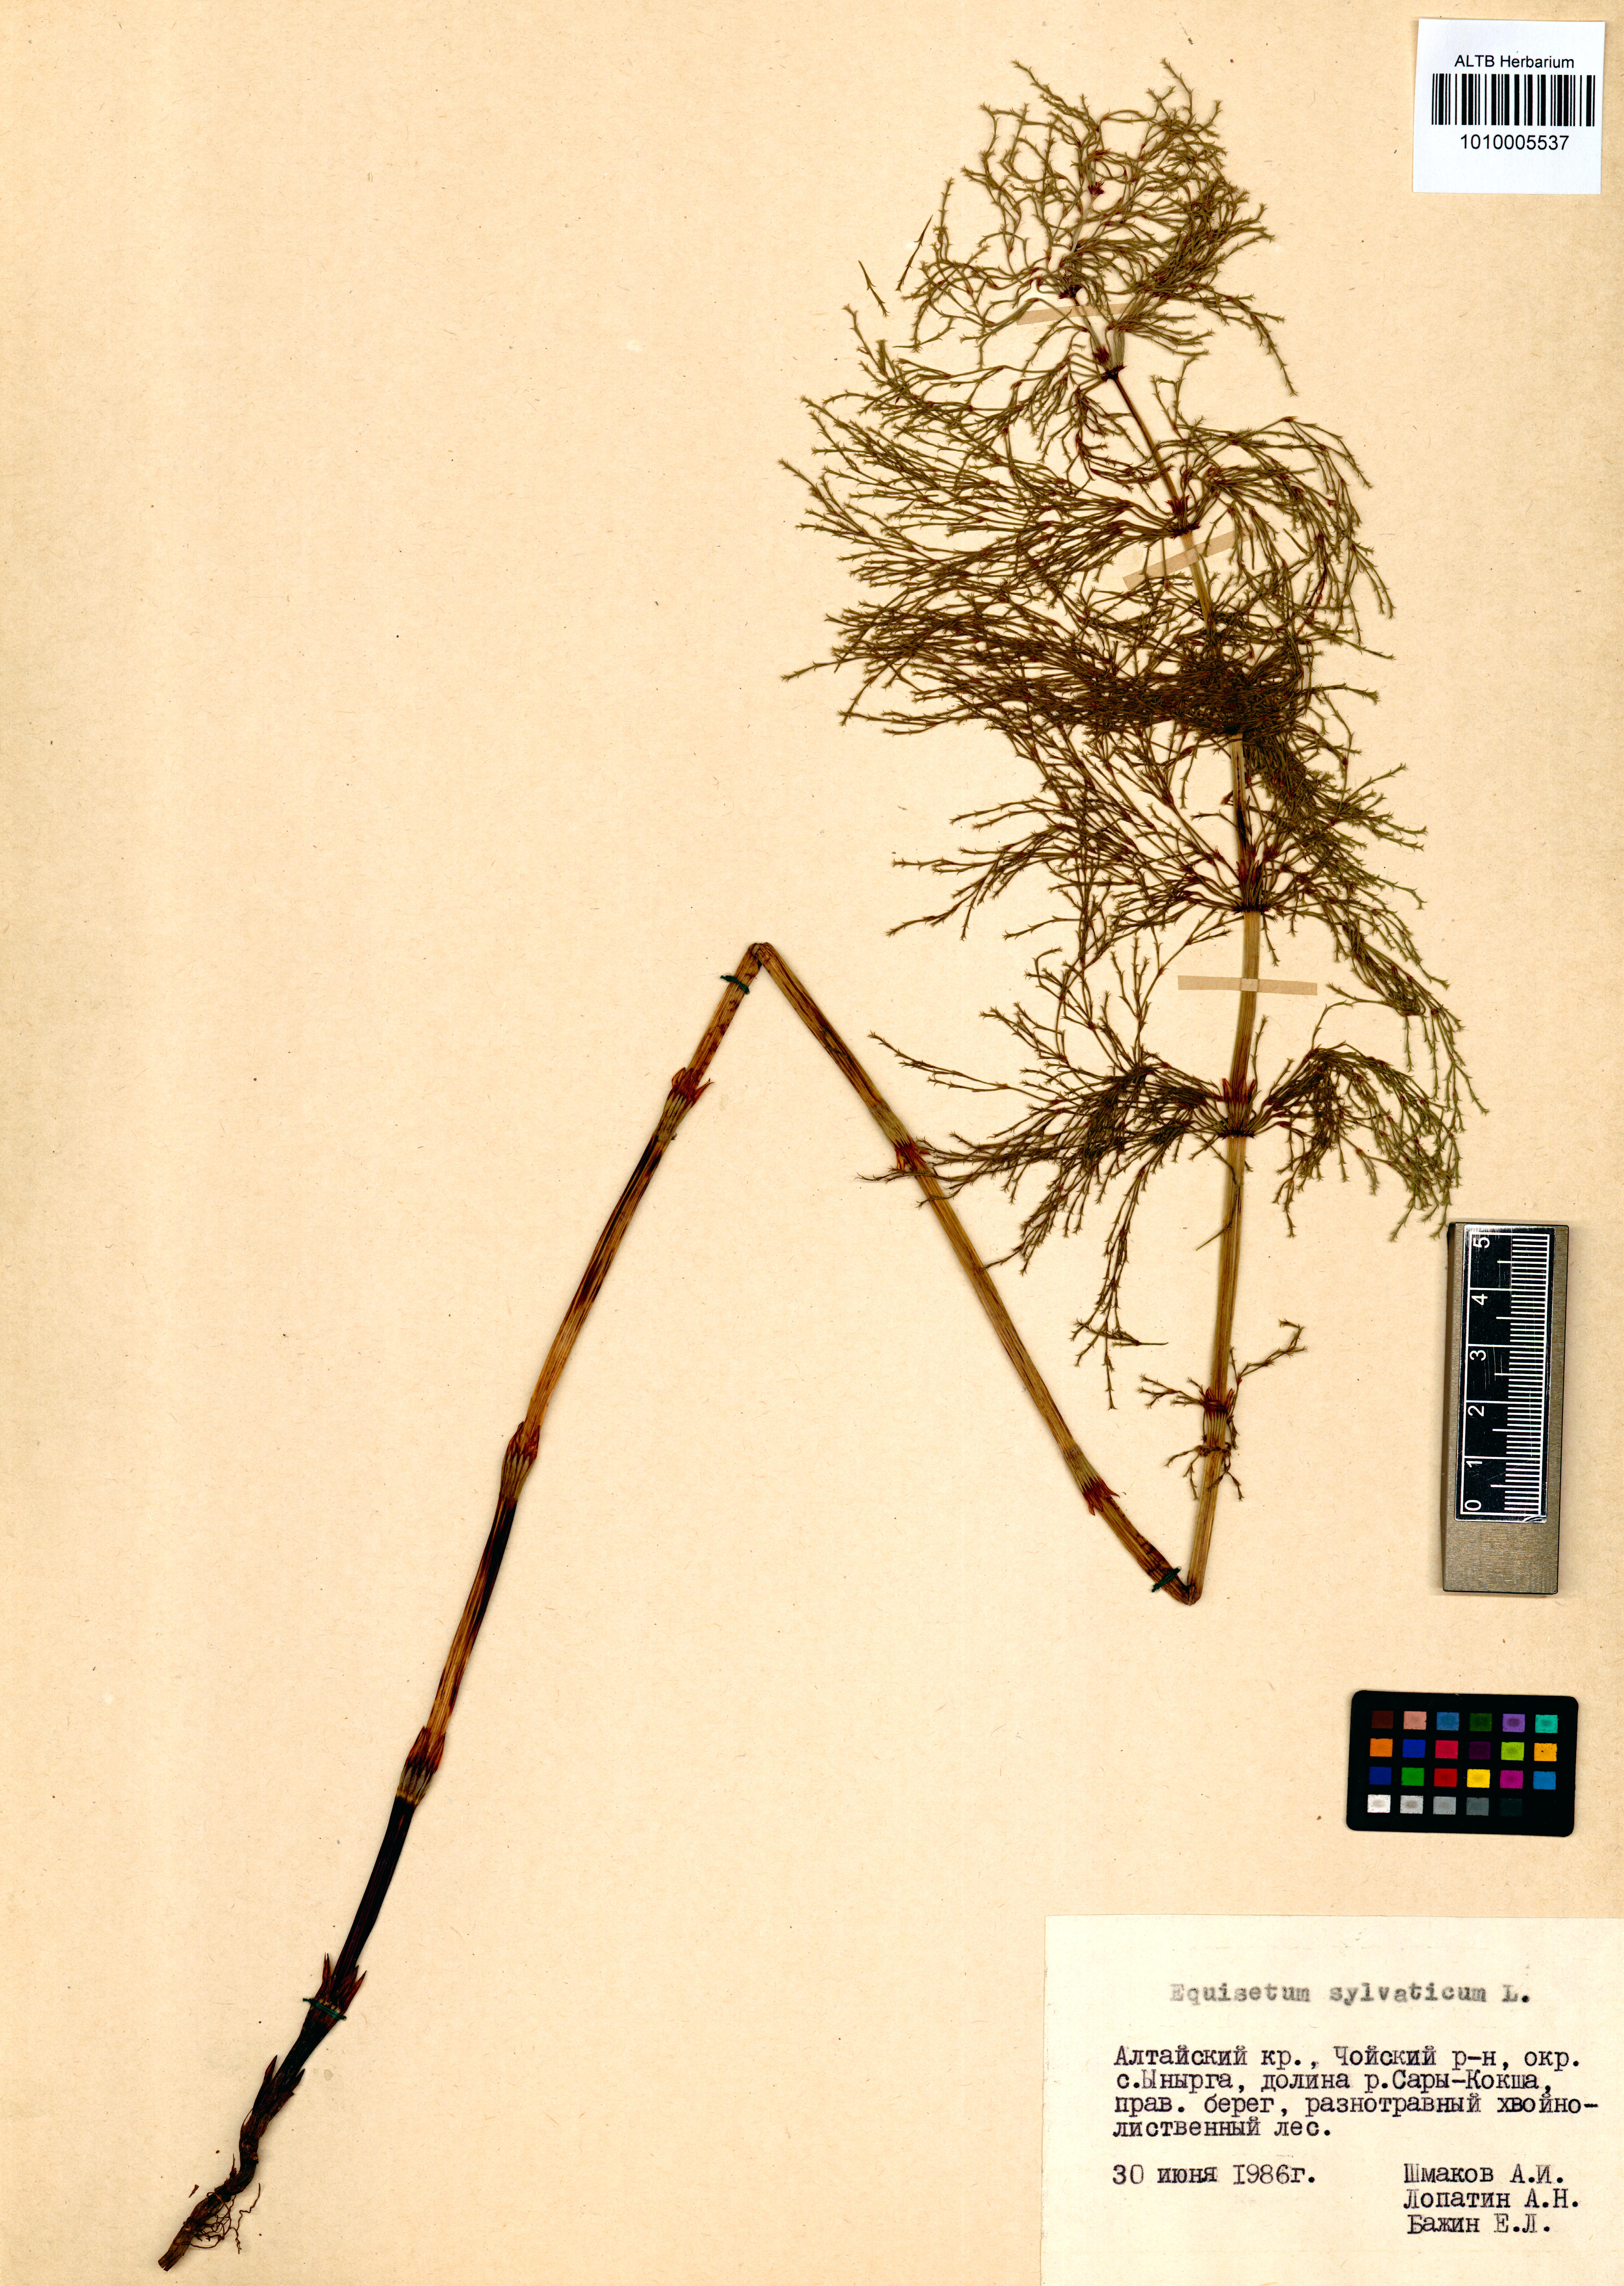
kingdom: Plantae
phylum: Tracheophyta
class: Polypodiopsida
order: Equisetales
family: Equisetaceae
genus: Equisetum
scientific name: Equisetum sylvaticum
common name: Wood horsetail
